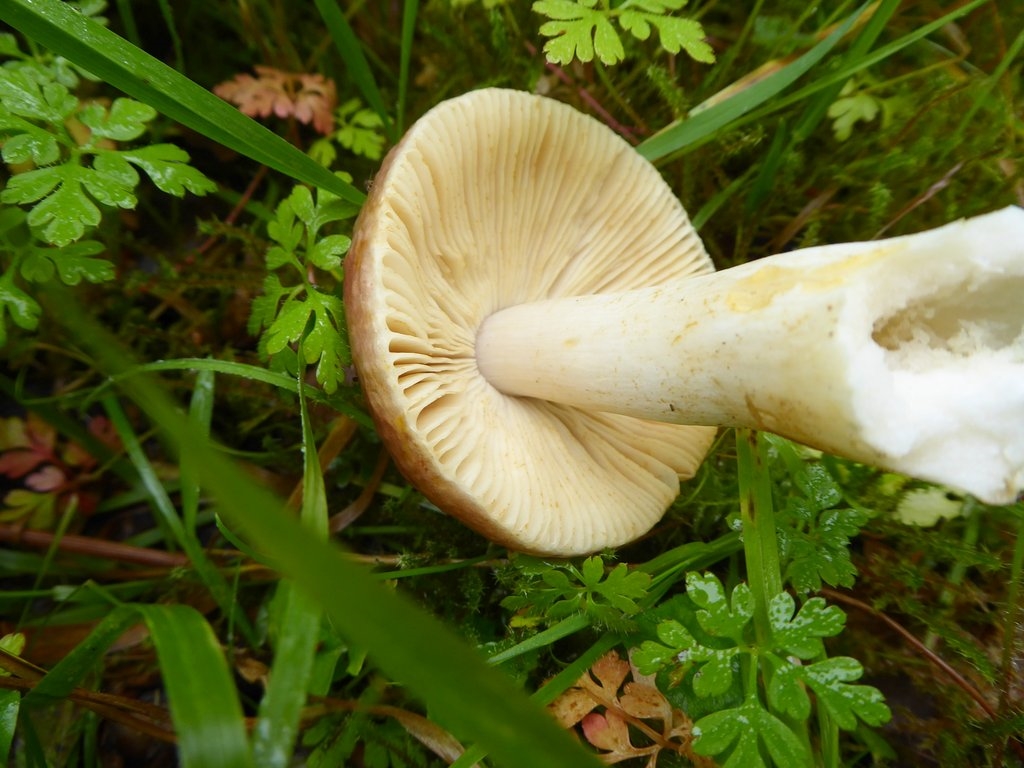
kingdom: Fungi
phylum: Basidiomycota
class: Agaricomycetes
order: Russulales
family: Russulaceae
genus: Russula
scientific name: Russula faginea
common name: bøge-skørhat
